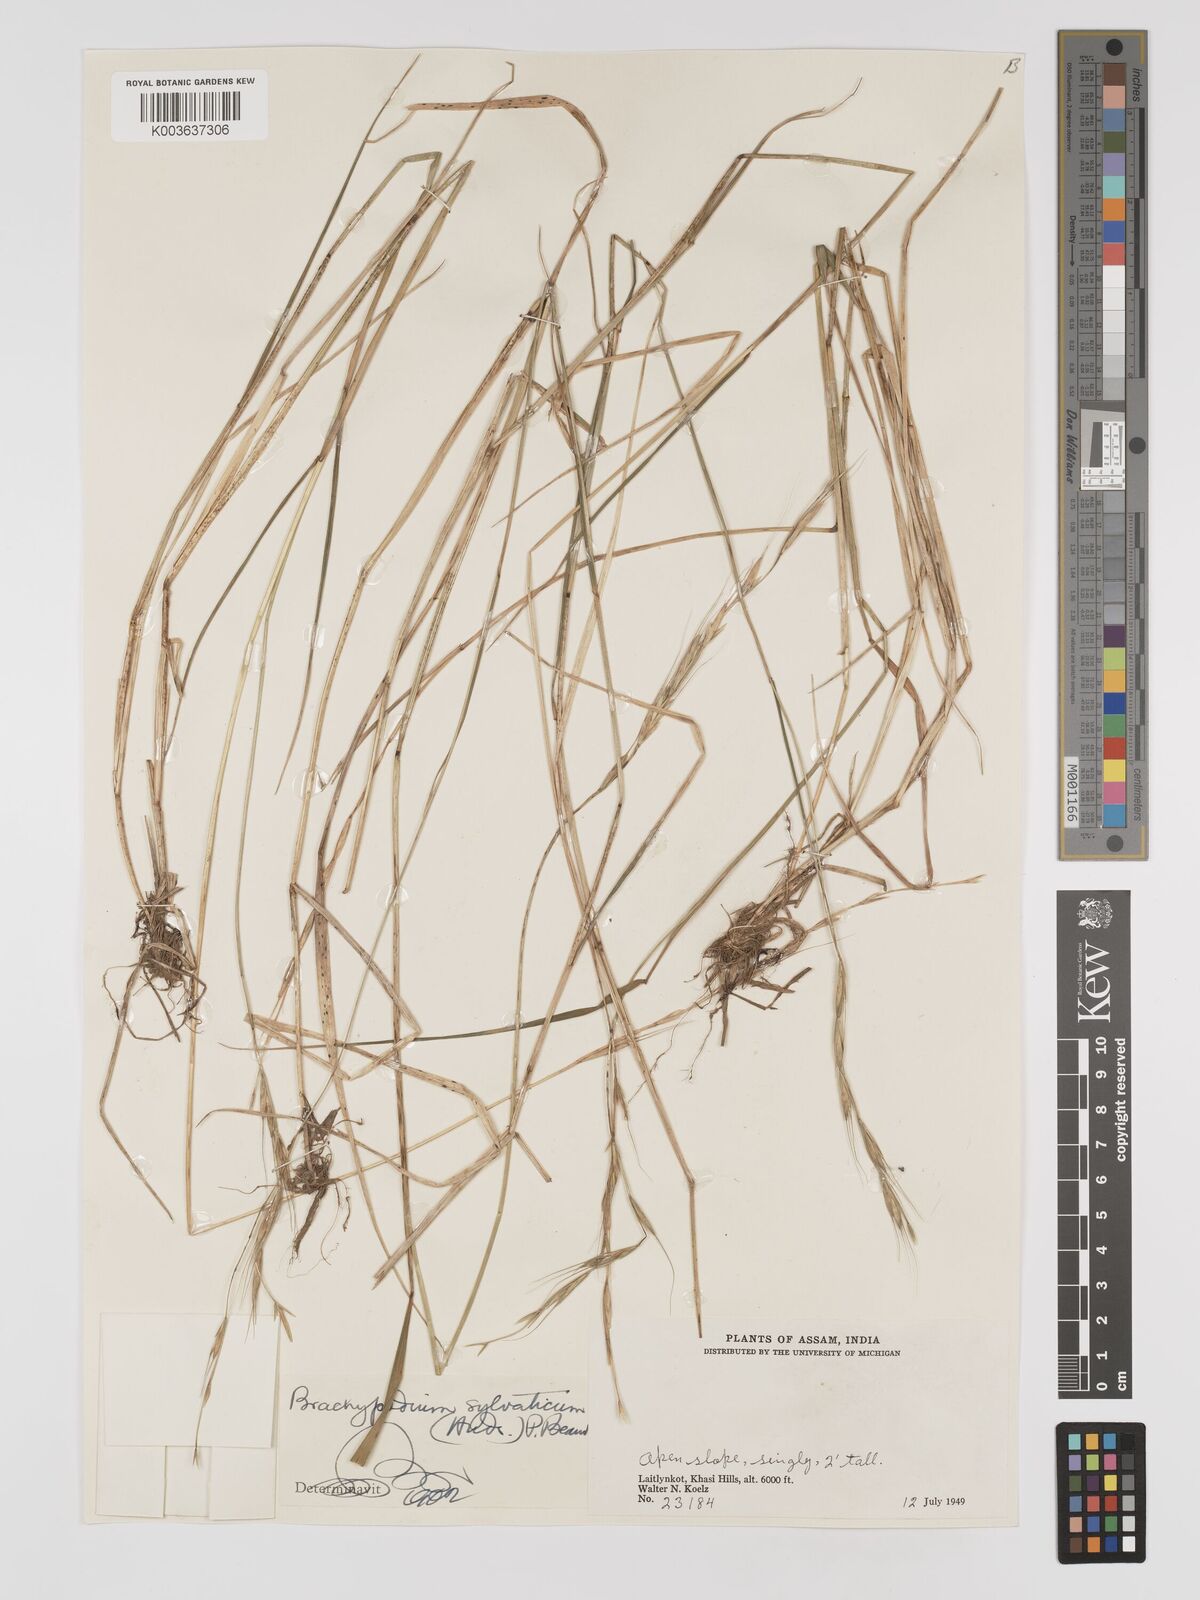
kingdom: Plantae
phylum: Tracheophyta
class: Liliopsida
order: Poales
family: Poaceae
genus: Brachypodium
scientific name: Brachypodium sylvaticum
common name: False-brome
